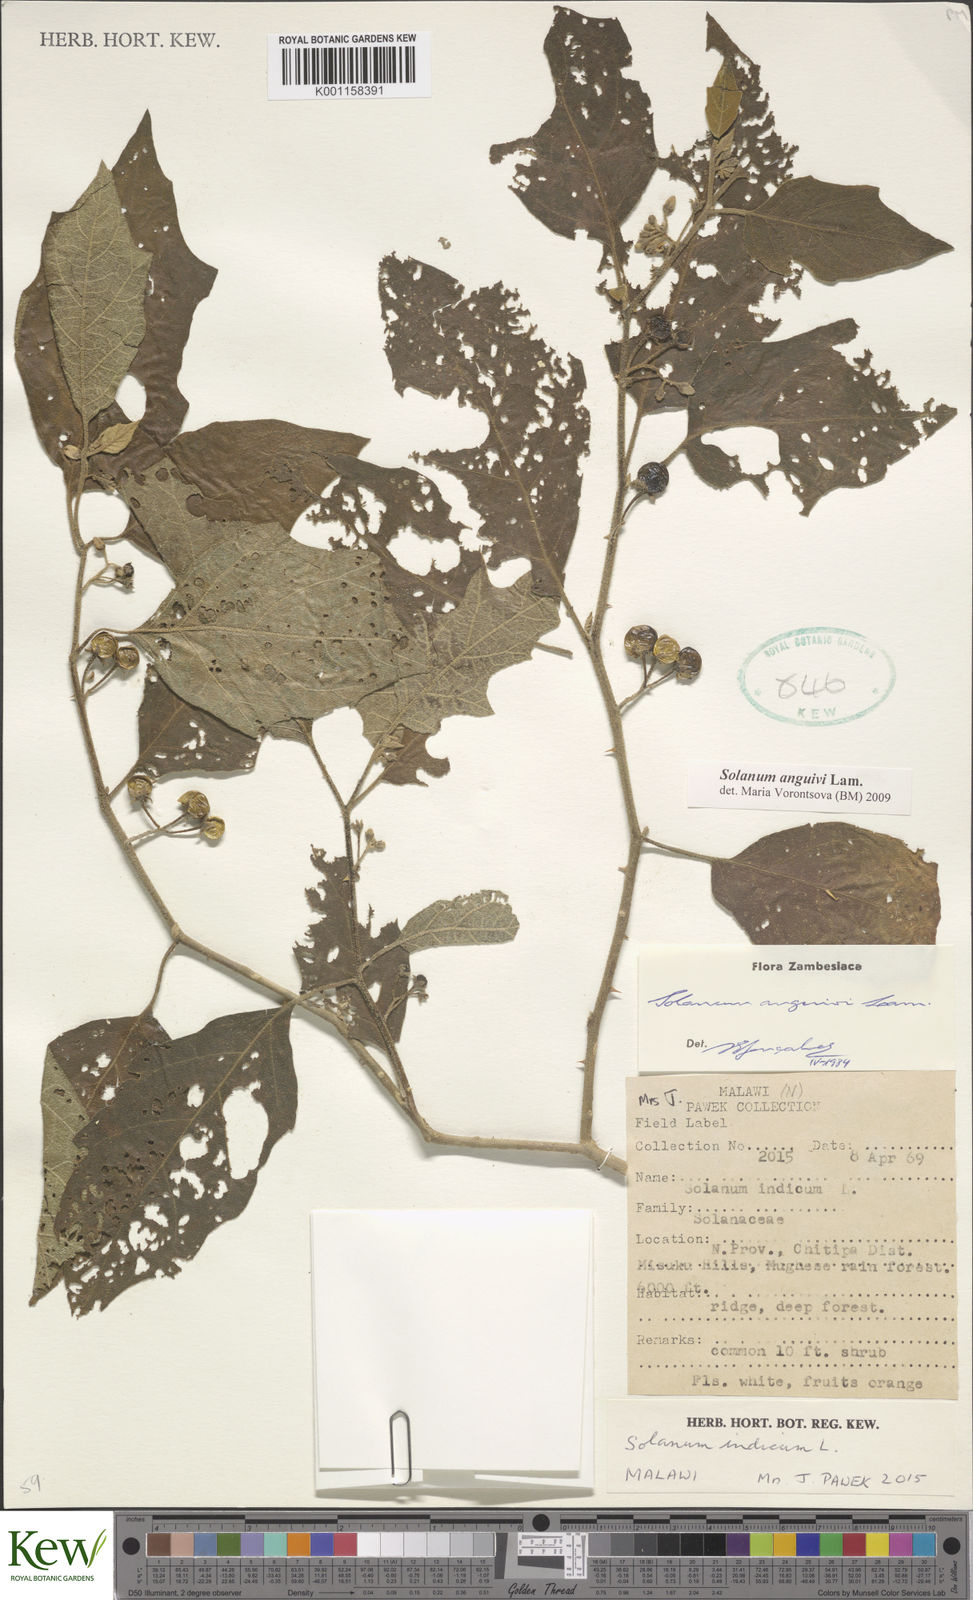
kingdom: Plantae
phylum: Tracheophyta
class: Magnoliopsida
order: Solanales
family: Solanaceae
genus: Solanum
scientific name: Solanum anguivi
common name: Forest bitterberry
